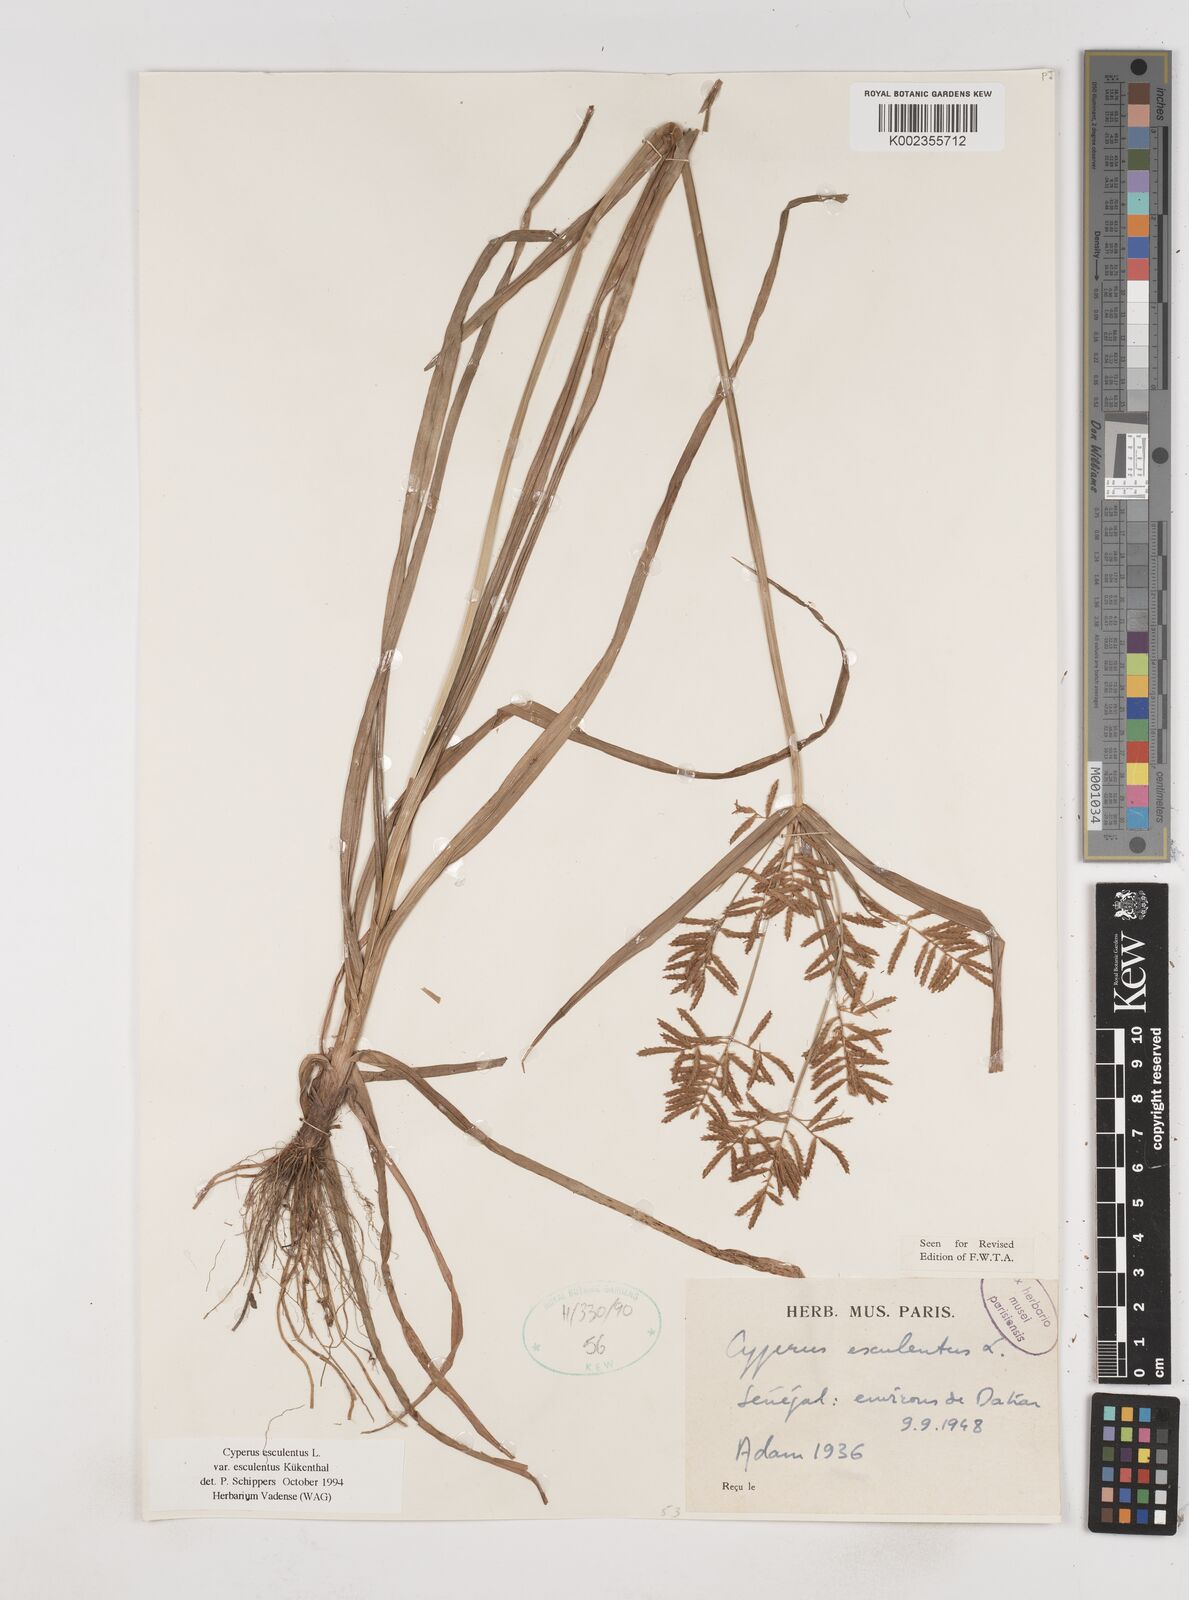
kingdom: Plantae
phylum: Tracheophyta
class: Liliopsida
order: Poales
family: Cyperaceae
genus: Cyperus
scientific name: Cyperus esculentus
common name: Yellow nutsedge
